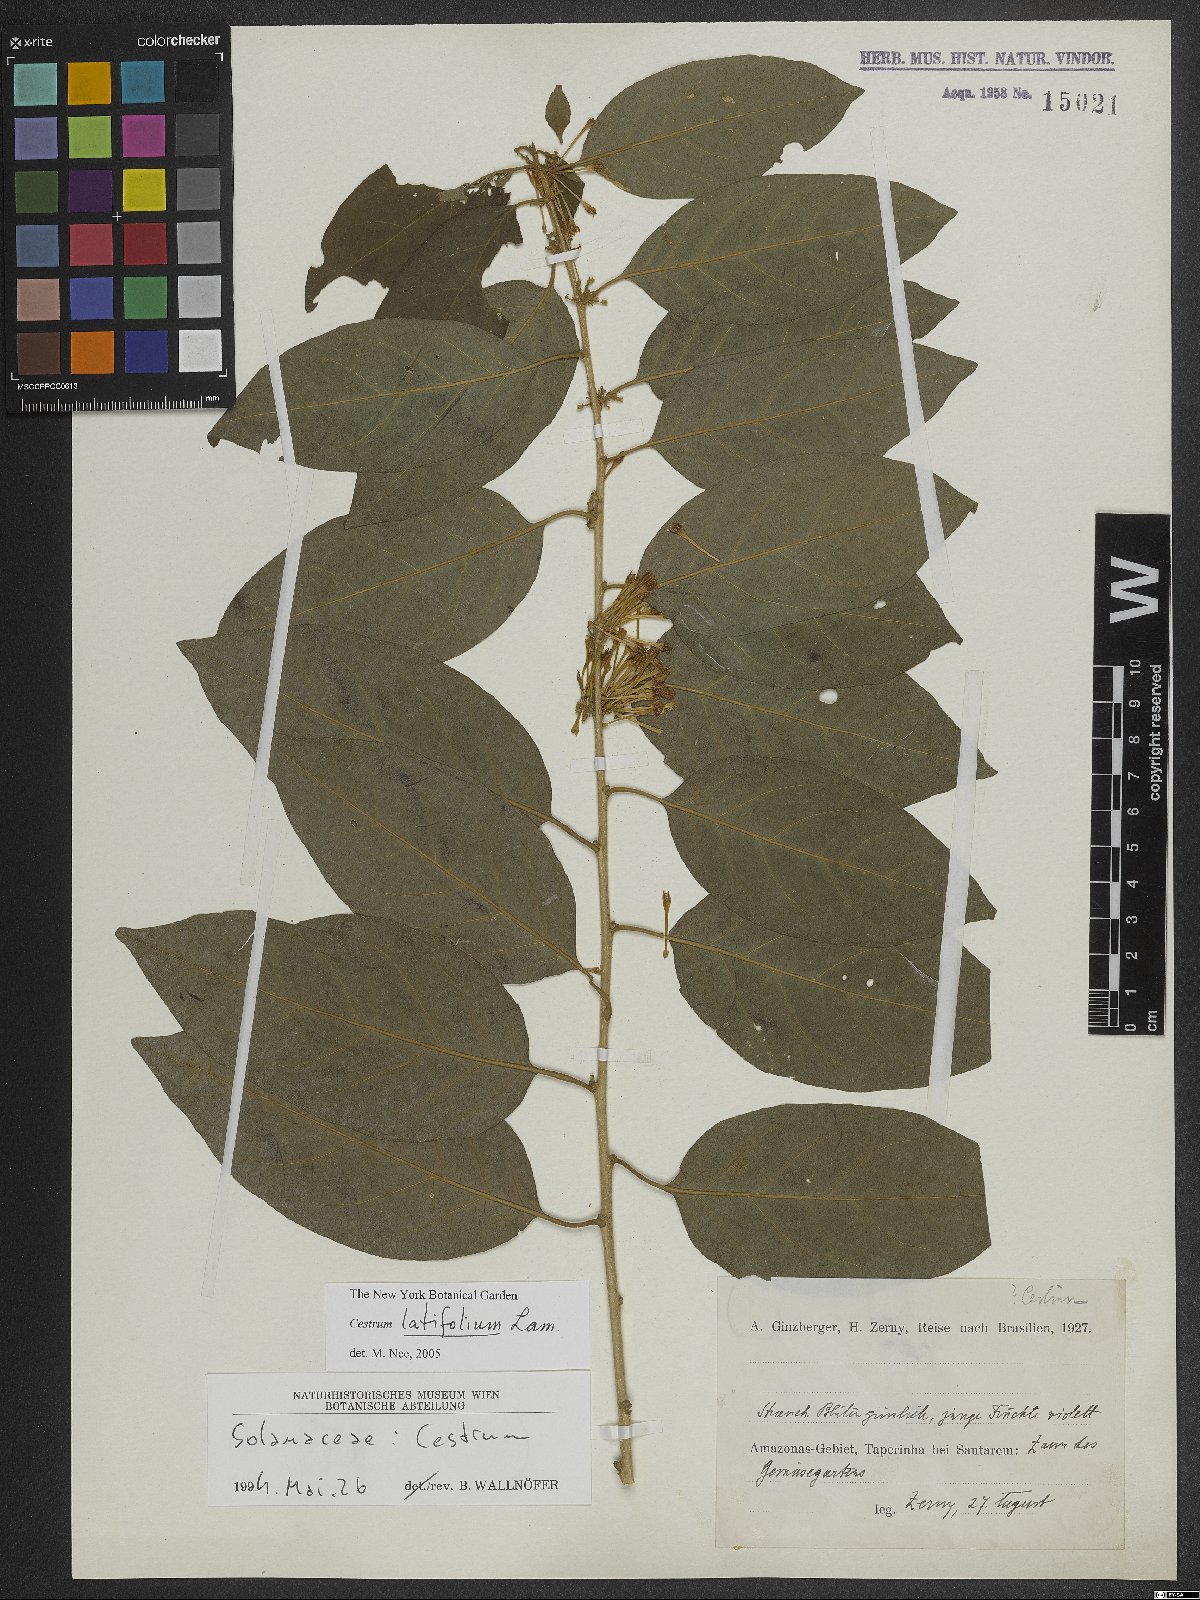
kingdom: Plantae
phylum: Tracheophyta
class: Magnoliopsida
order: Solanales
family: Solanaceae
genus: Cestrum
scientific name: Cestrum latifolium
